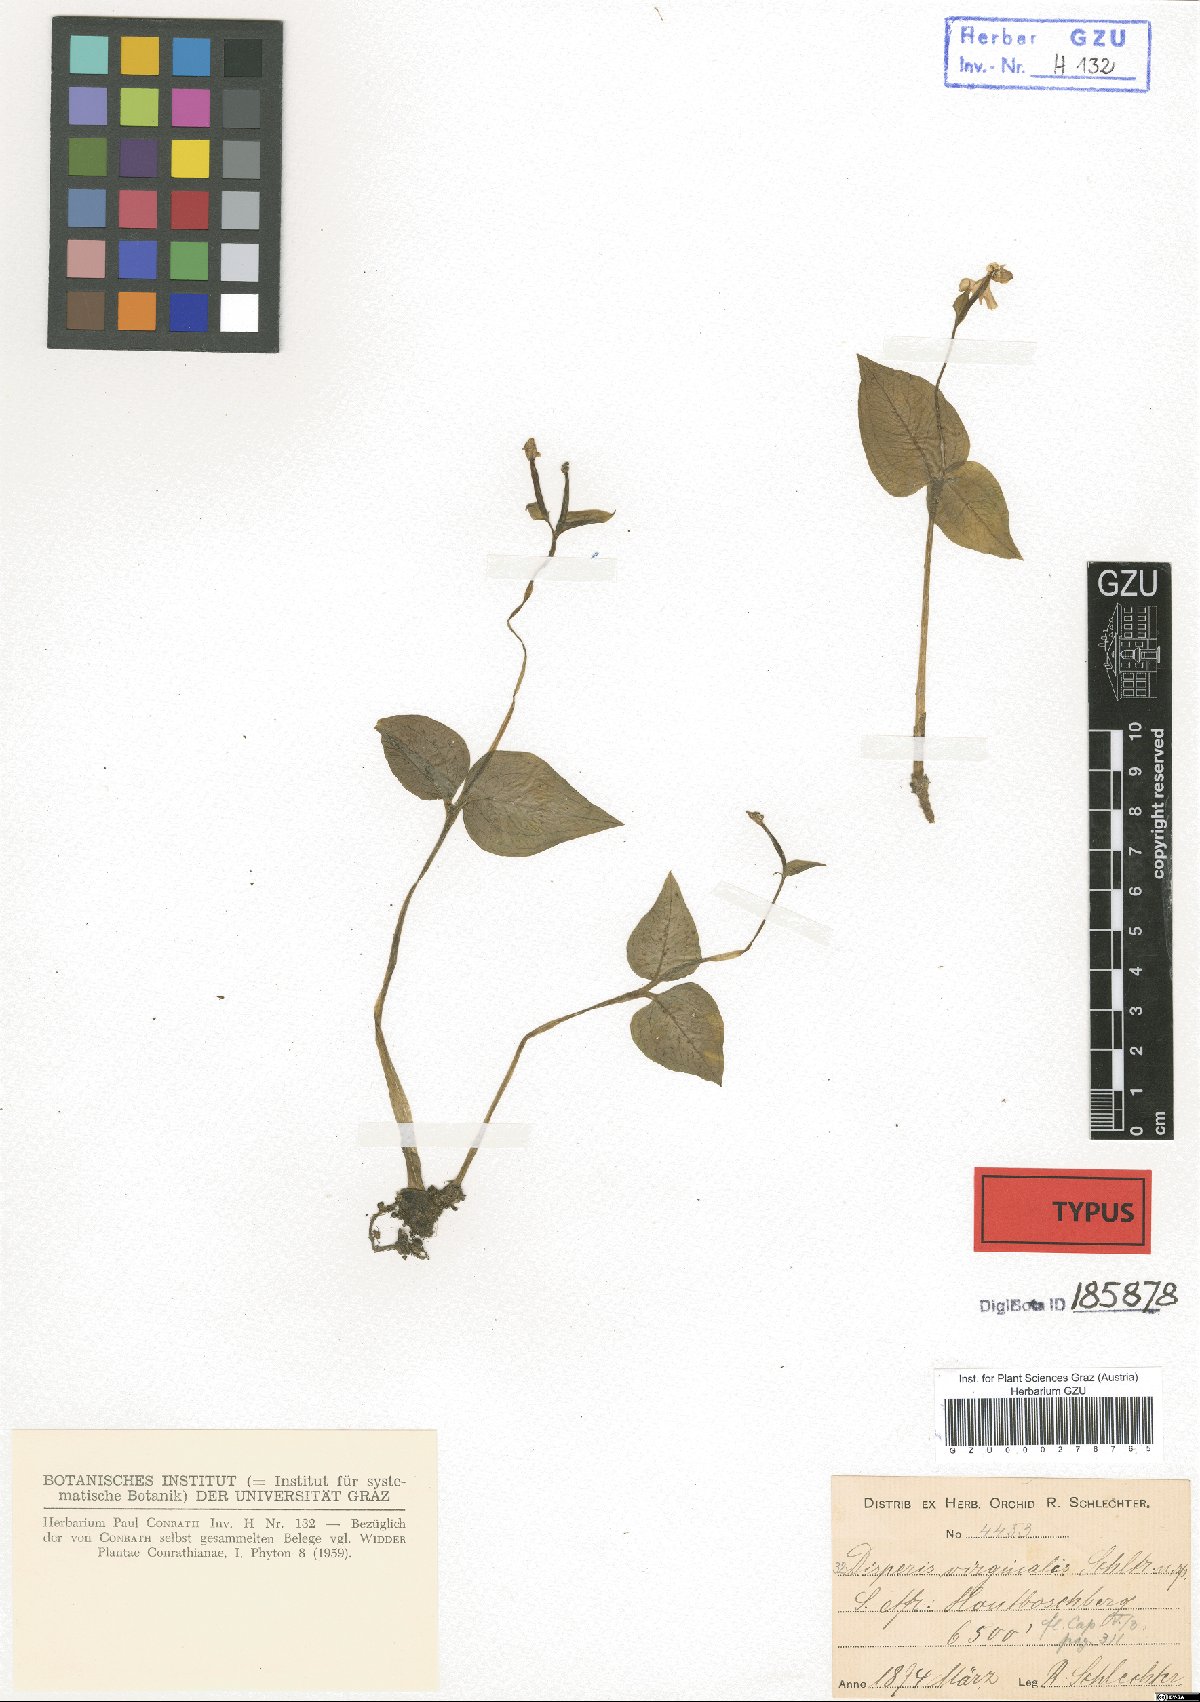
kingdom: Plantae
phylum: Tracheophyta
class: Liliopsida
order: Asparagales
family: Orchidaceae
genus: Disperis
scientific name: Disperis virginalis
